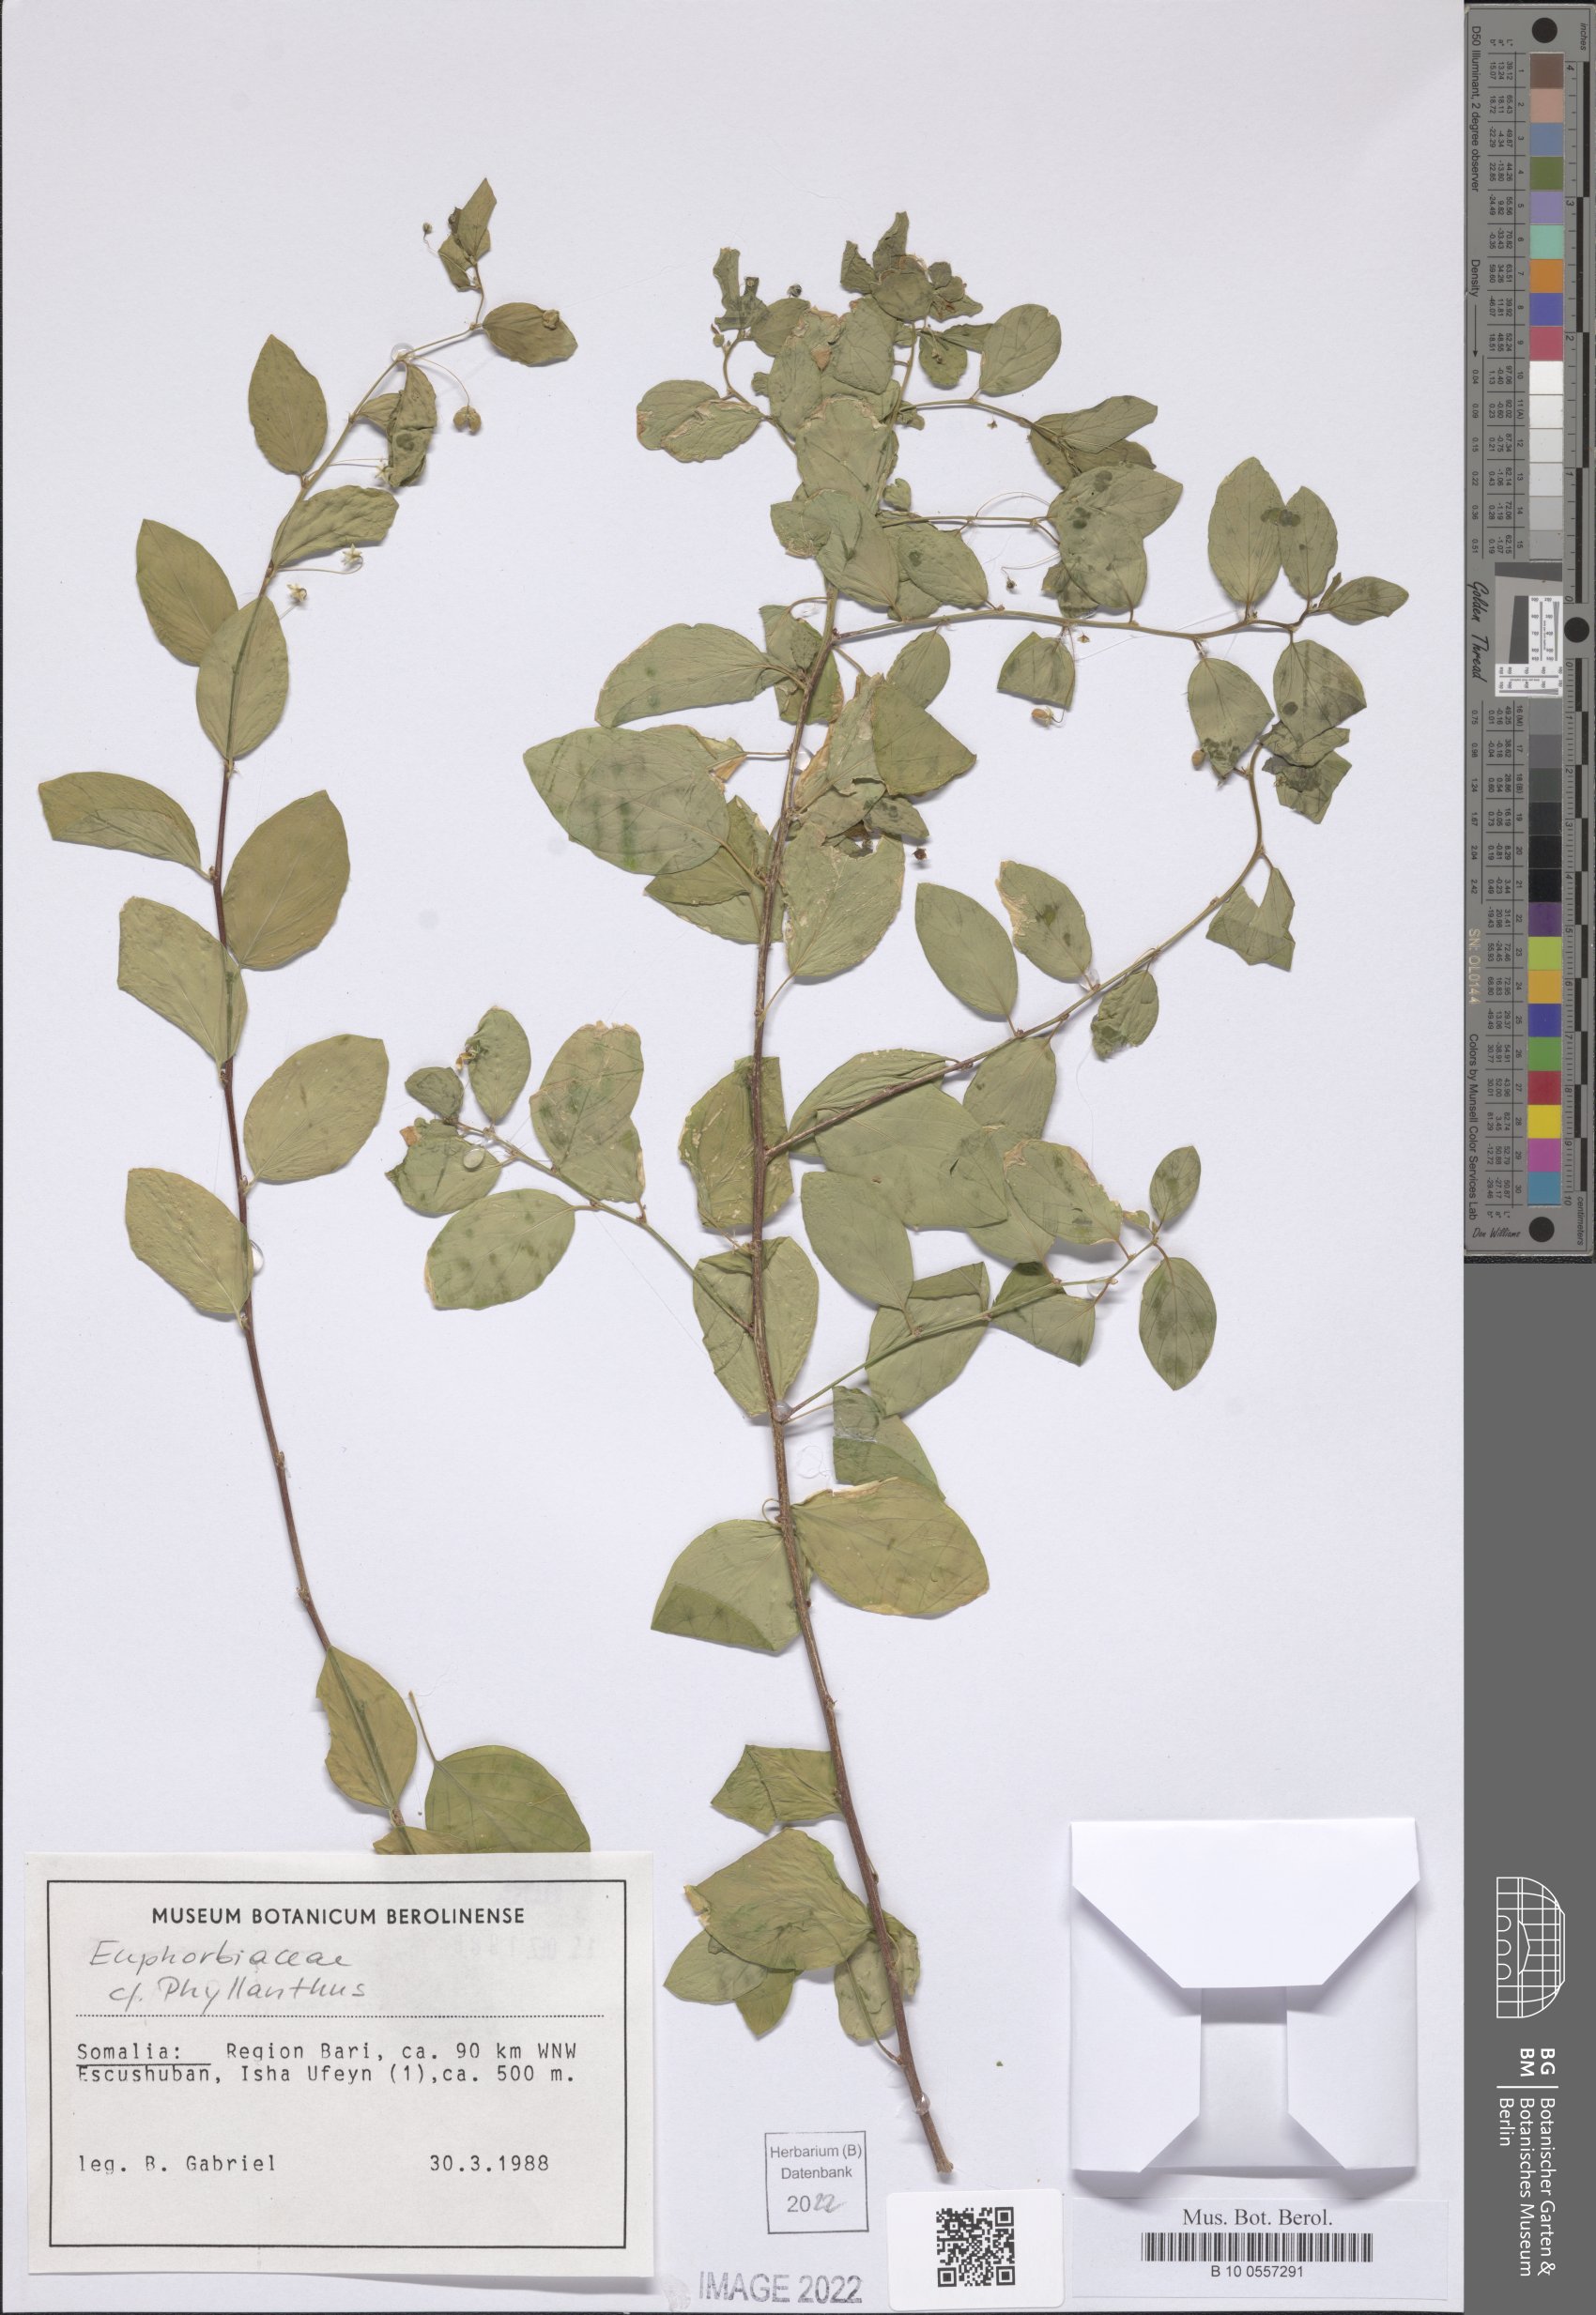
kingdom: Plantae
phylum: Tracheophyta
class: Magnoliopsida
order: Malpighiales
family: Phyllanthaceae
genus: Phyllanthus
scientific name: Phyllanthus
